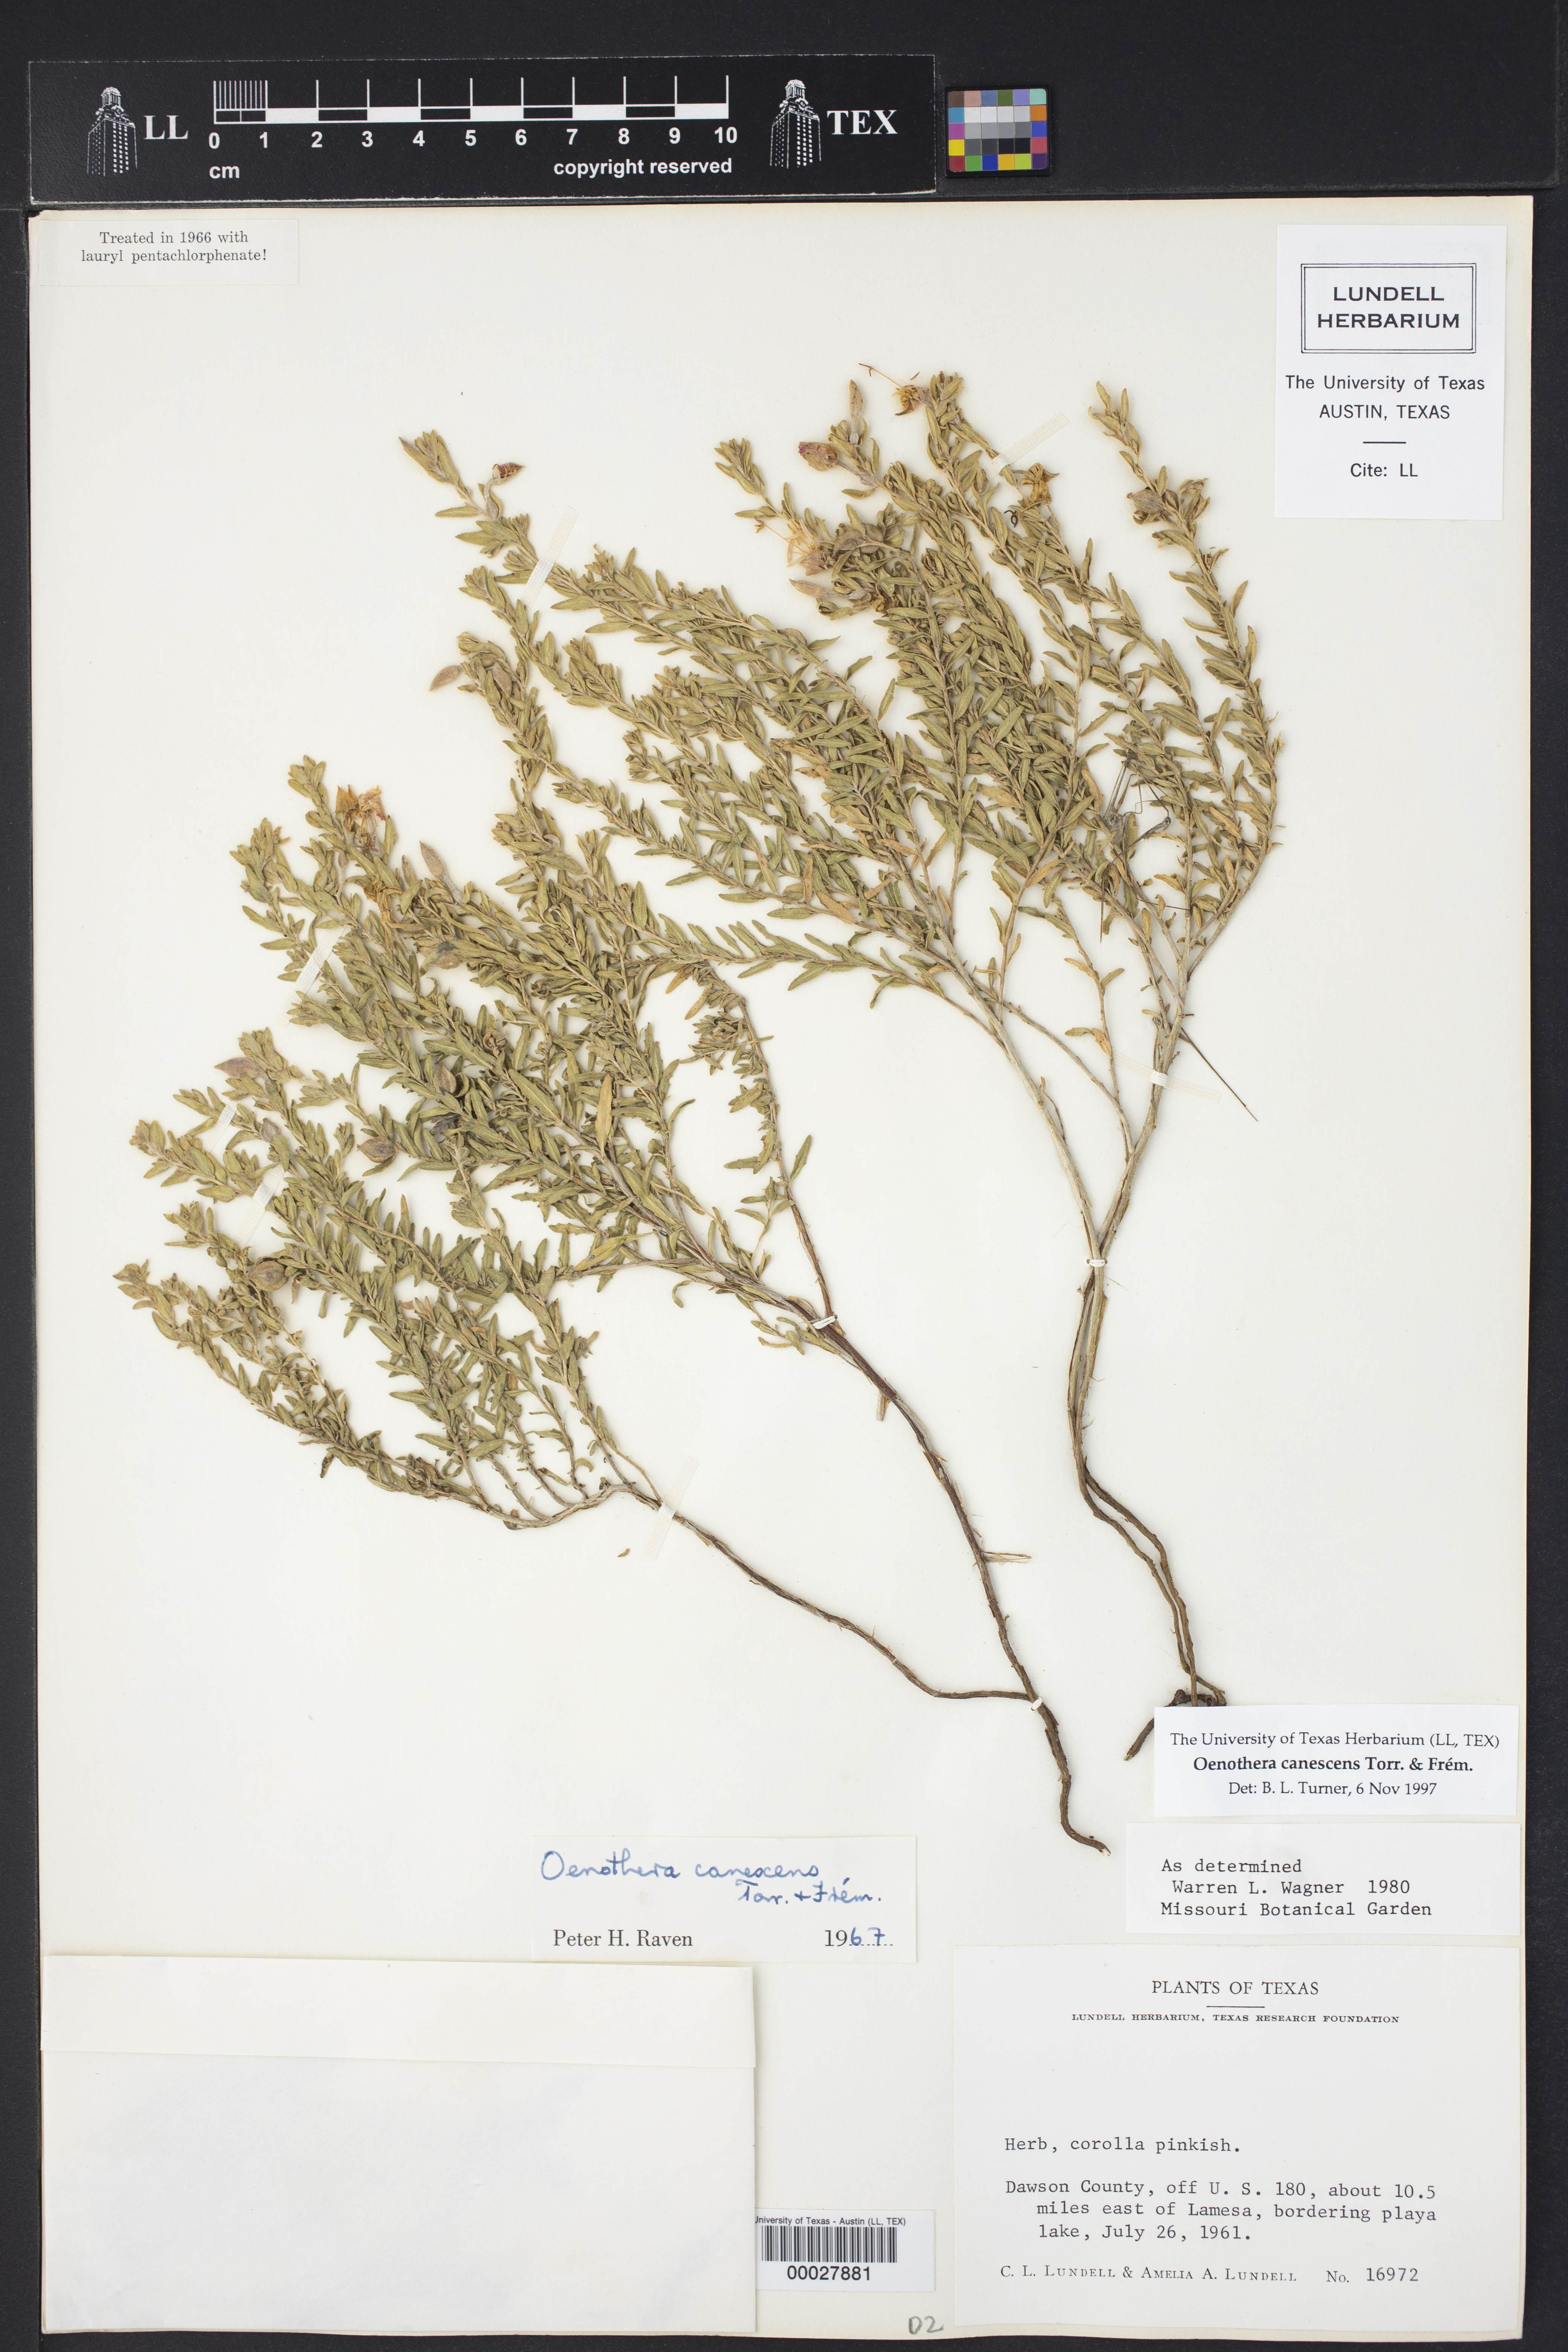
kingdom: Plantae
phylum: Tracheophyta
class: Magnoliopsida
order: Myrtales
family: Onagraceae
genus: Oenothera
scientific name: Oenothera canescens
